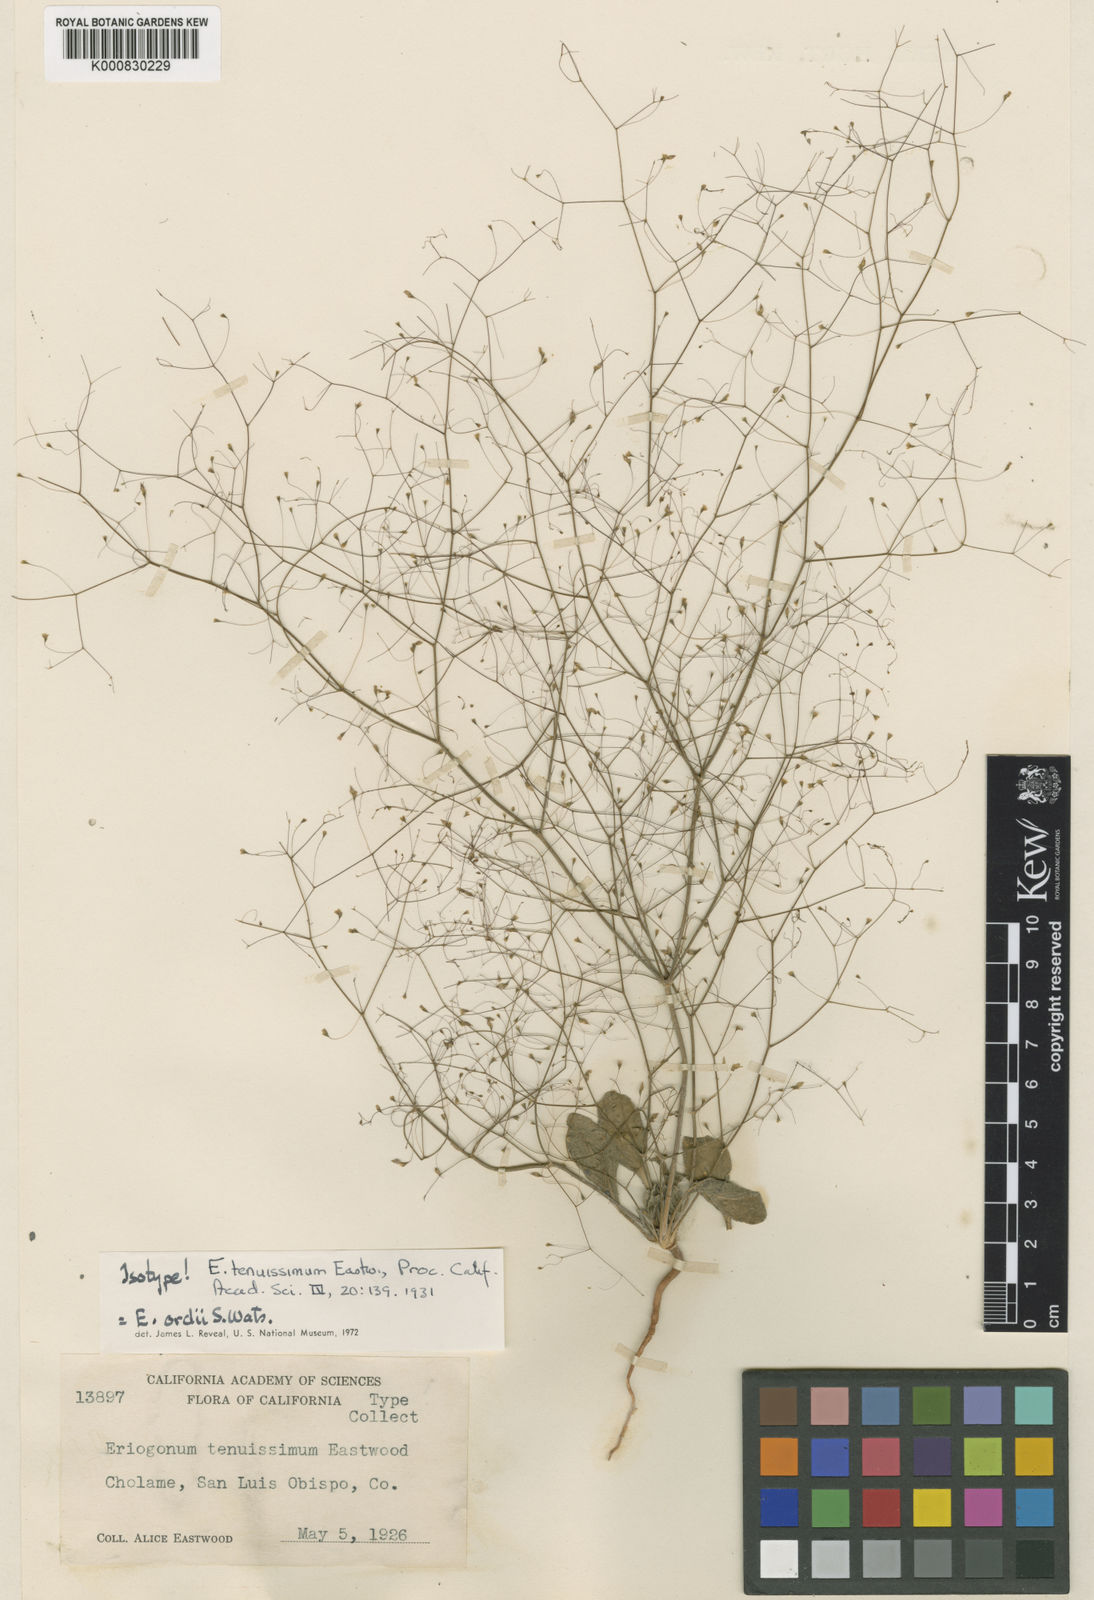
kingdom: Plantae
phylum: Tracheophyta
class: Magnoliopsida
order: Caryophyllales
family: Polygonaceae
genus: Eriogonum
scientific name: Eriogonum ordii
